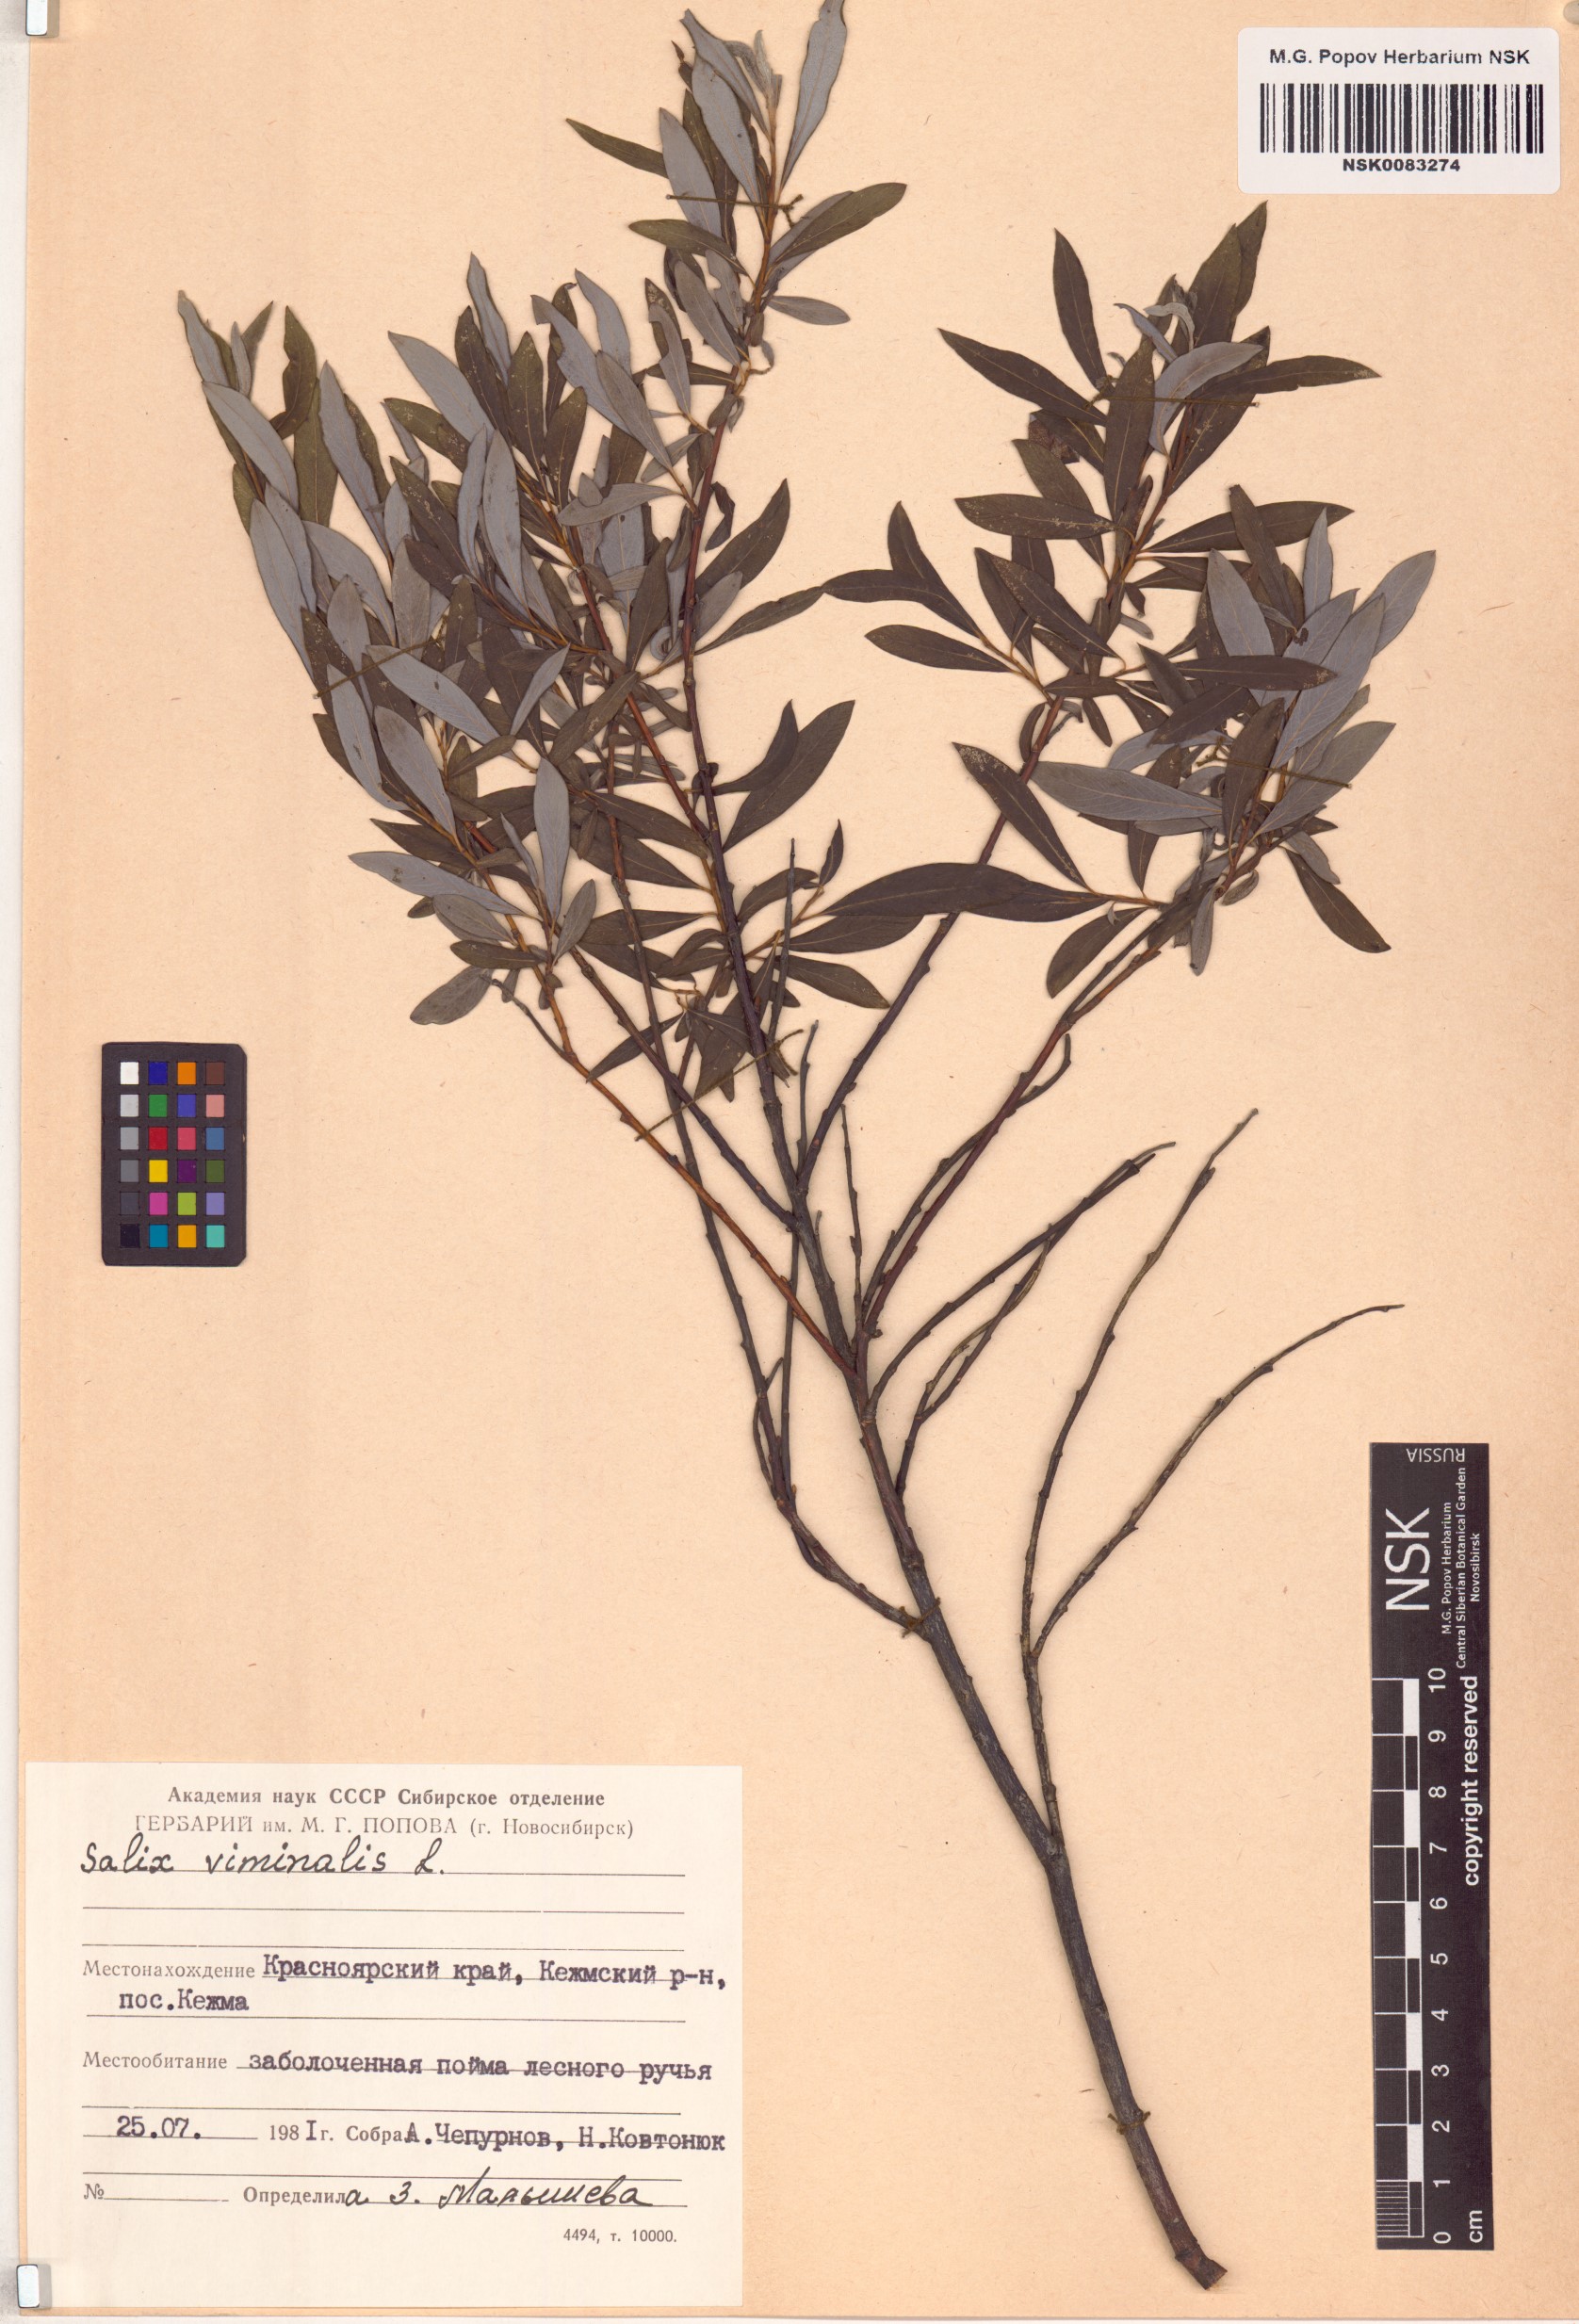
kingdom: Plantae
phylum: Tracheophyta
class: Magnoliopsida
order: Malpighiales
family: Salicaceae
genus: Salix
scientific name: Salix viminalis
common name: Osier
